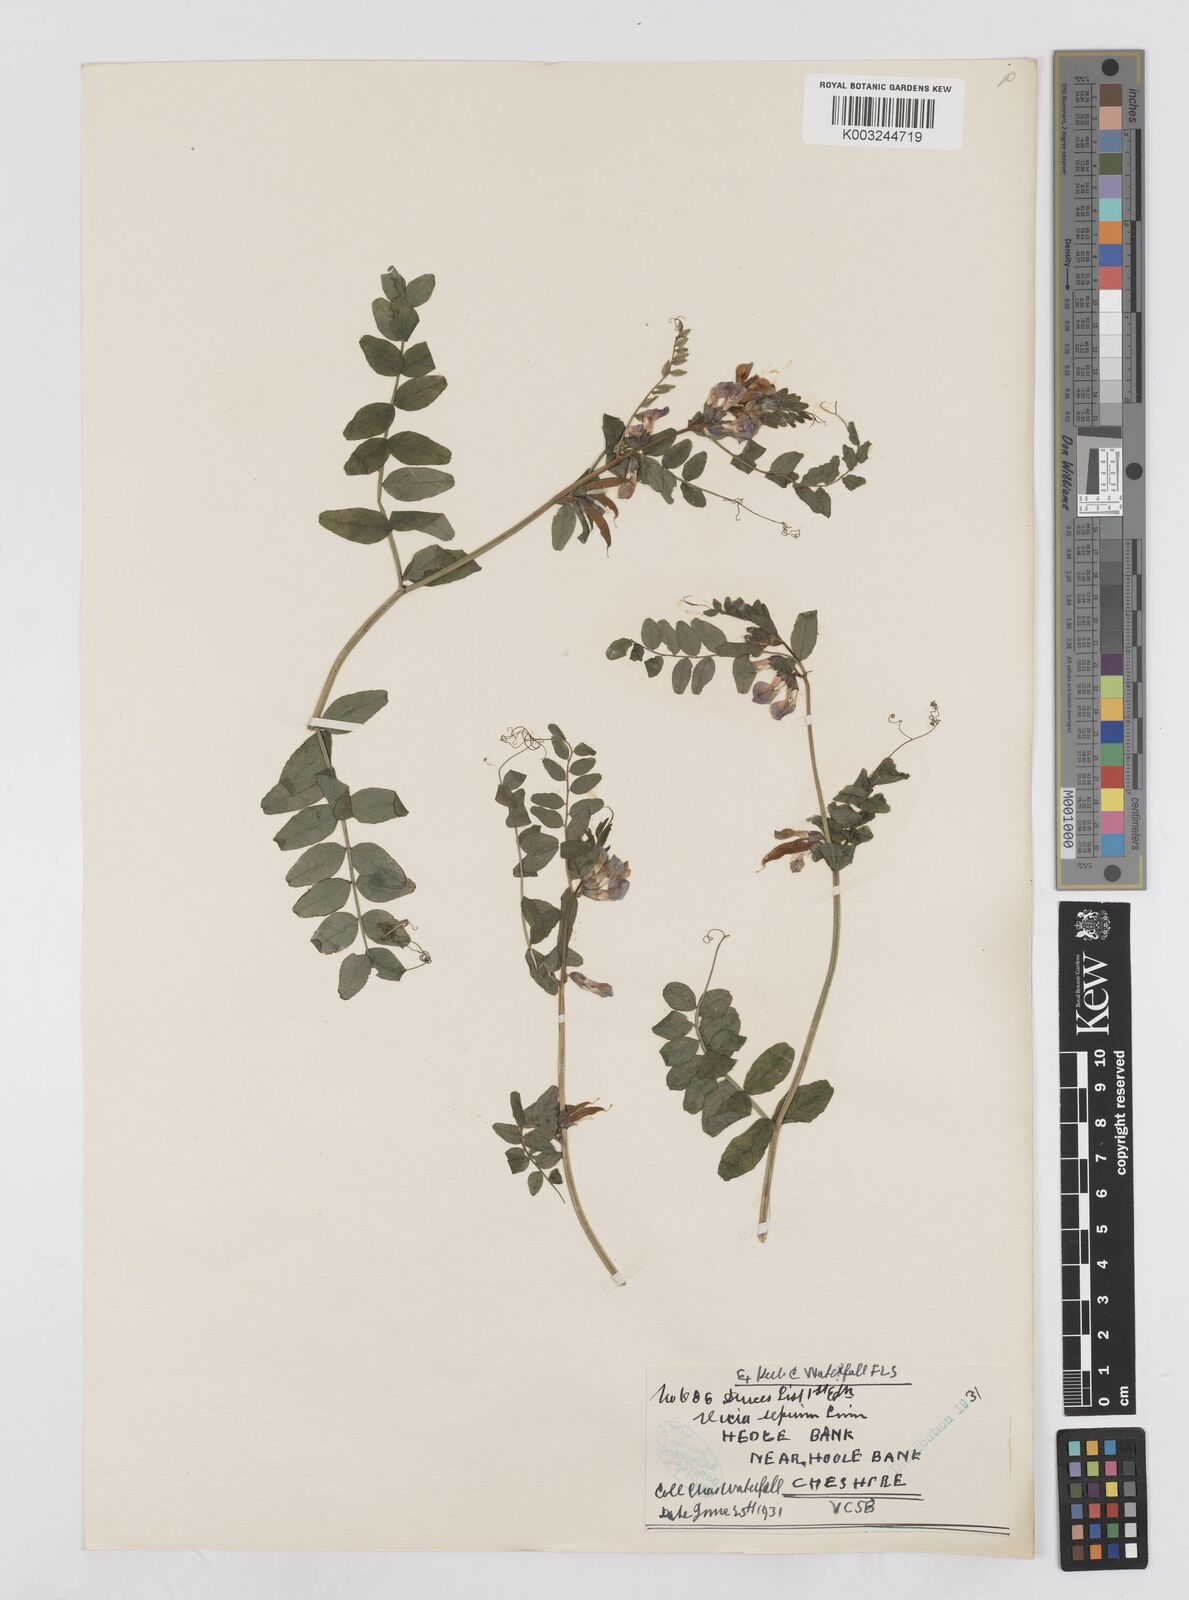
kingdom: Plantae
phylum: Tracheophyta
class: Magnoliopsida
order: Fabales
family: Fabaceae
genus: Vicia
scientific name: Vicia sepium
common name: Bush vetch
